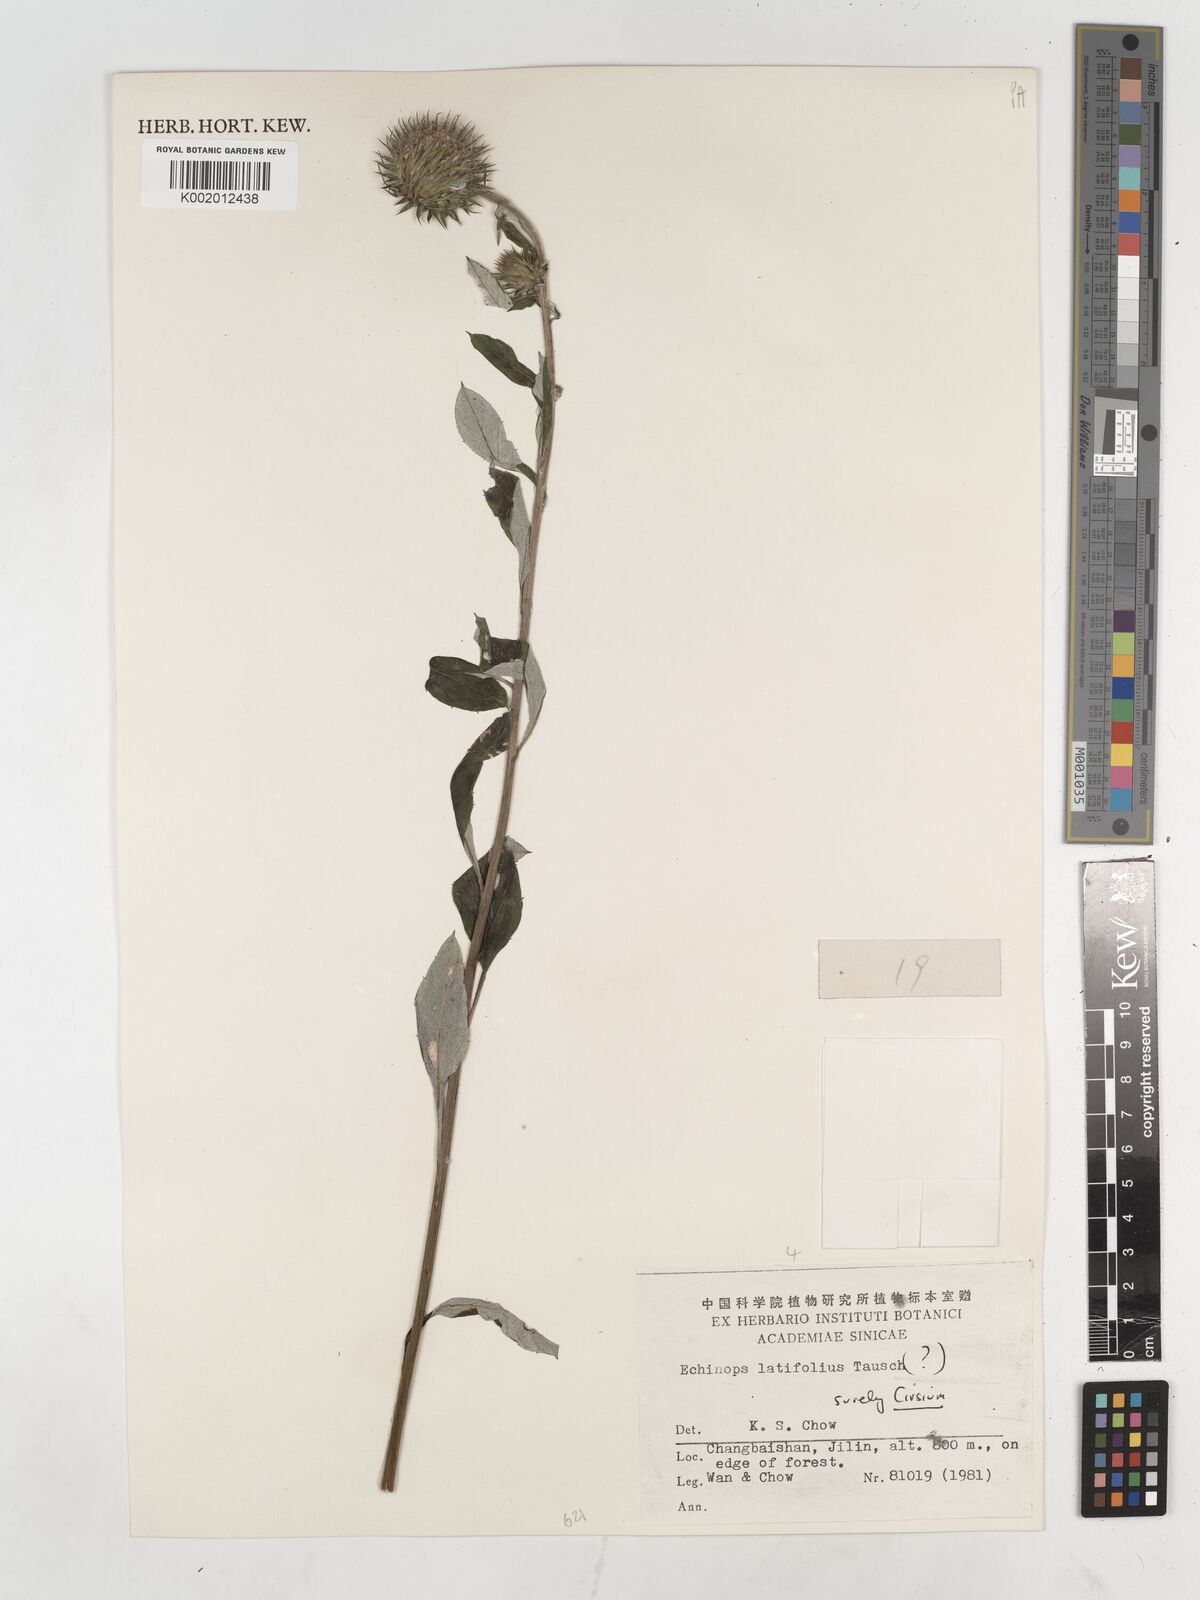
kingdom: Plantae
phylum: Tracheophyta
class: Magnoliopsida
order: Asterales
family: Asteraceae
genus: Cirsium
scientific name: Cirsium
